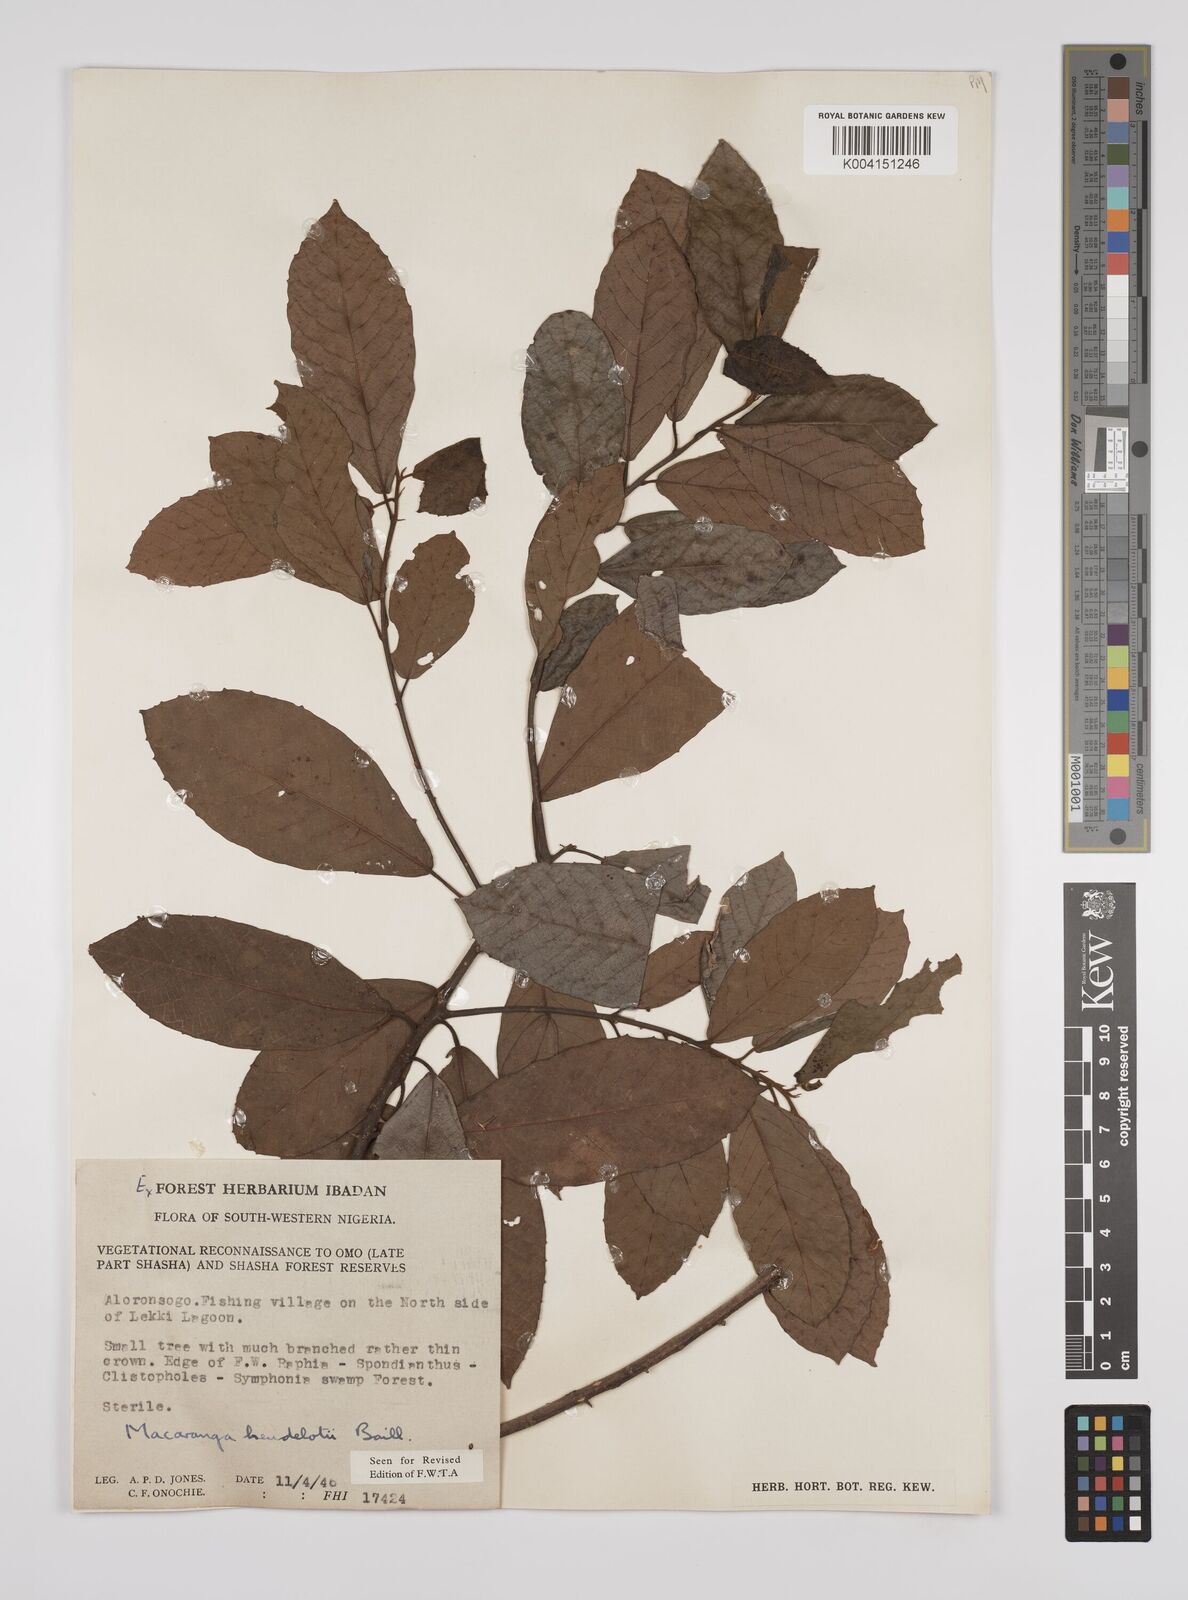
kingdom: Plantae
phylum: Tracheophyta
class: Magnoliopsida
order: Malpighiales
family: Euphorbiaceae
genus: Macaranga
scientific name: Macaranga heudelotii
